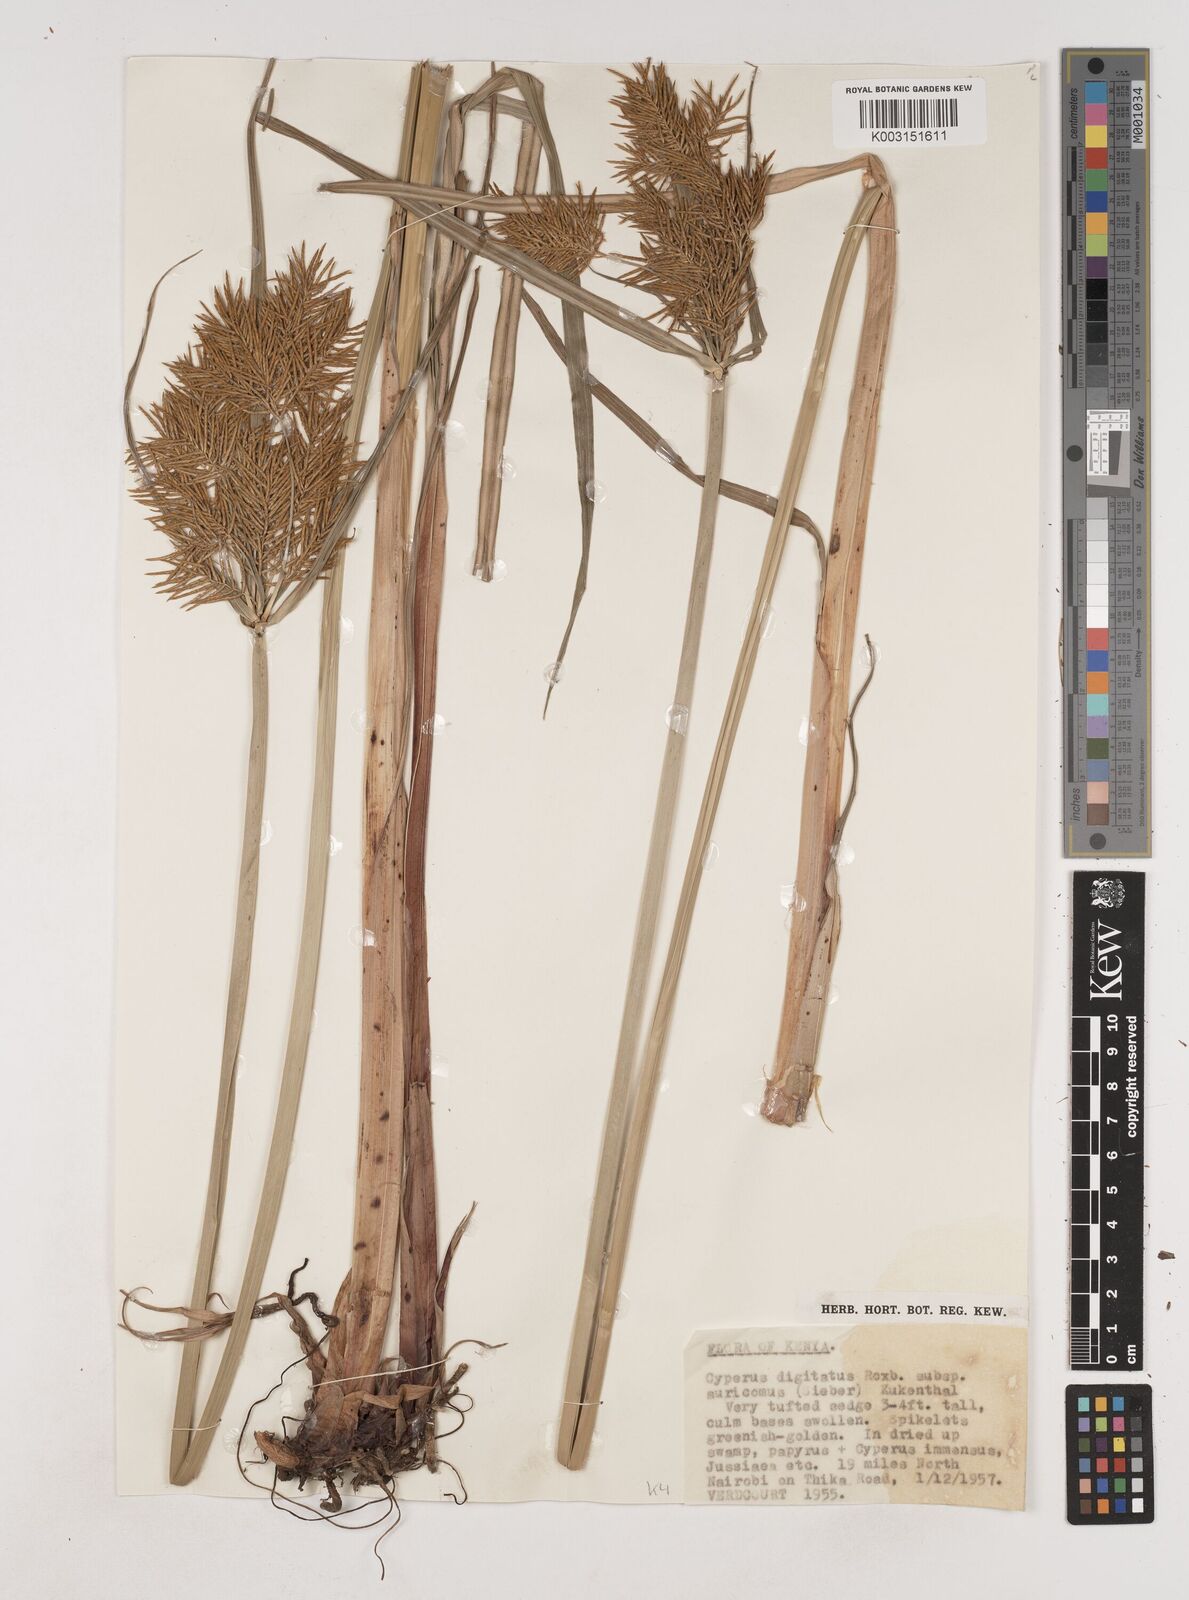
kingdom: Plantae
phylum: Tracheophyta
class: Liliopsida
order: Poales
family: Cyperaceae
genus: Cyperus
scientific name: Cyperus digitatus
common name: Finger flatsedge
